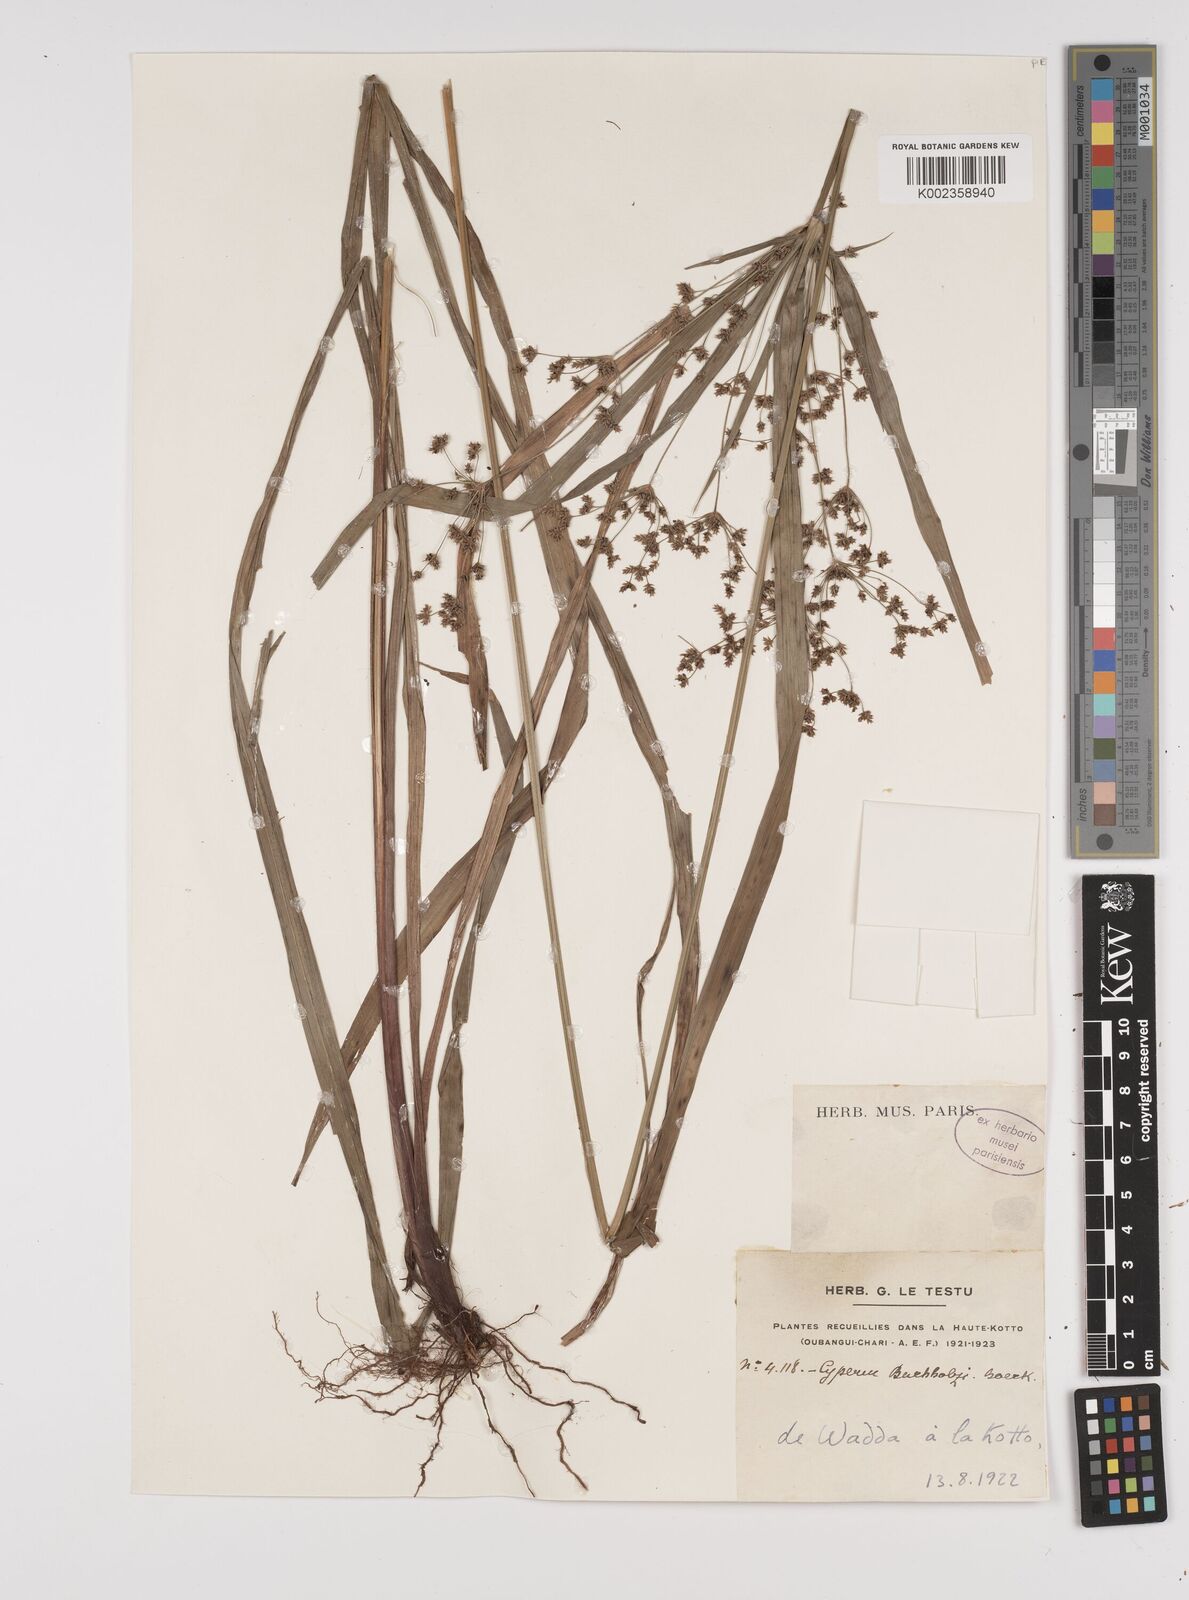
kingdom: Plantae
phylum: Tracheophyta
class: Liliopsida
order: Poales
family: Cyperaceae
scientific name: Cyperaceae
